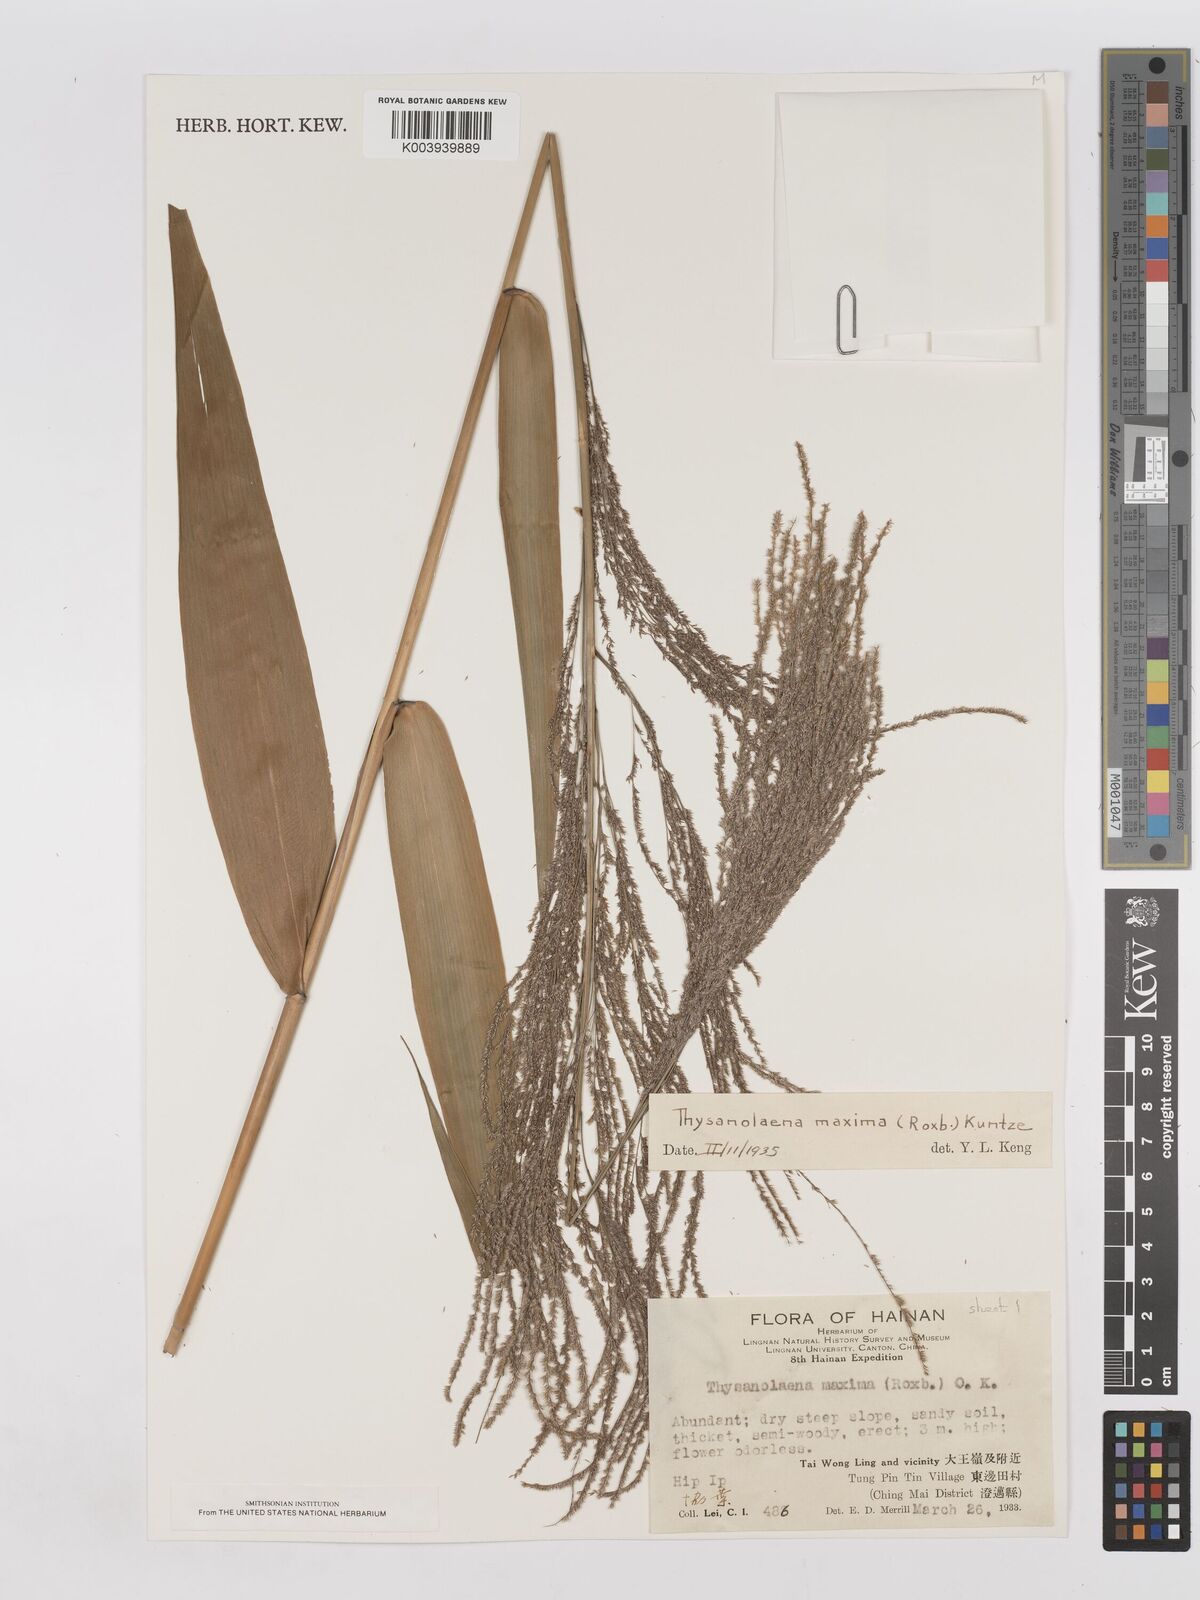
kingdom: Plantae
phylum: Tracheophyta
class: Liliopsida
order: Poales
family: Poaceae
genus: Thysanolaena
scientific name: Thysanolaena latifolia
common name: Tiger grass
